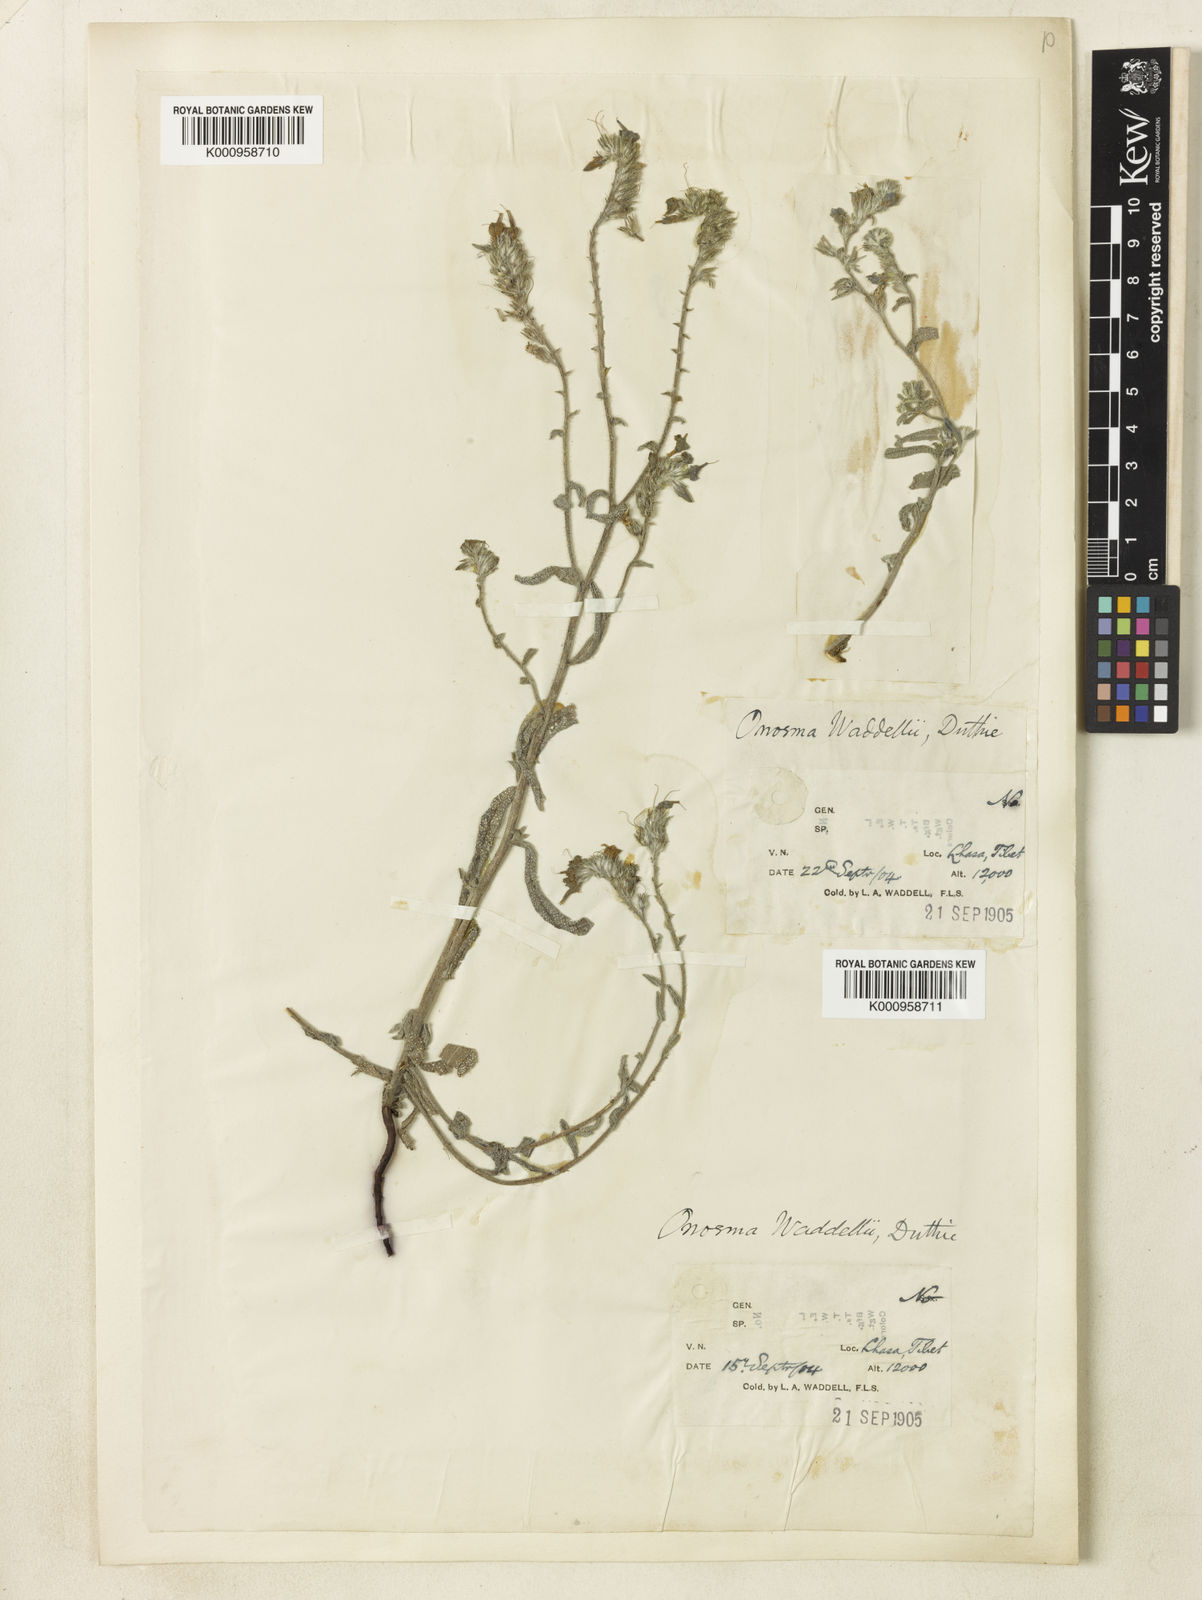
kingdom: Plantae
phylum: Tracheophyta
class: Magnoliopsida
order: Boraginales
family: Boraginaceae
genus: Maharanga
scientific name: Maharanga waddellii
